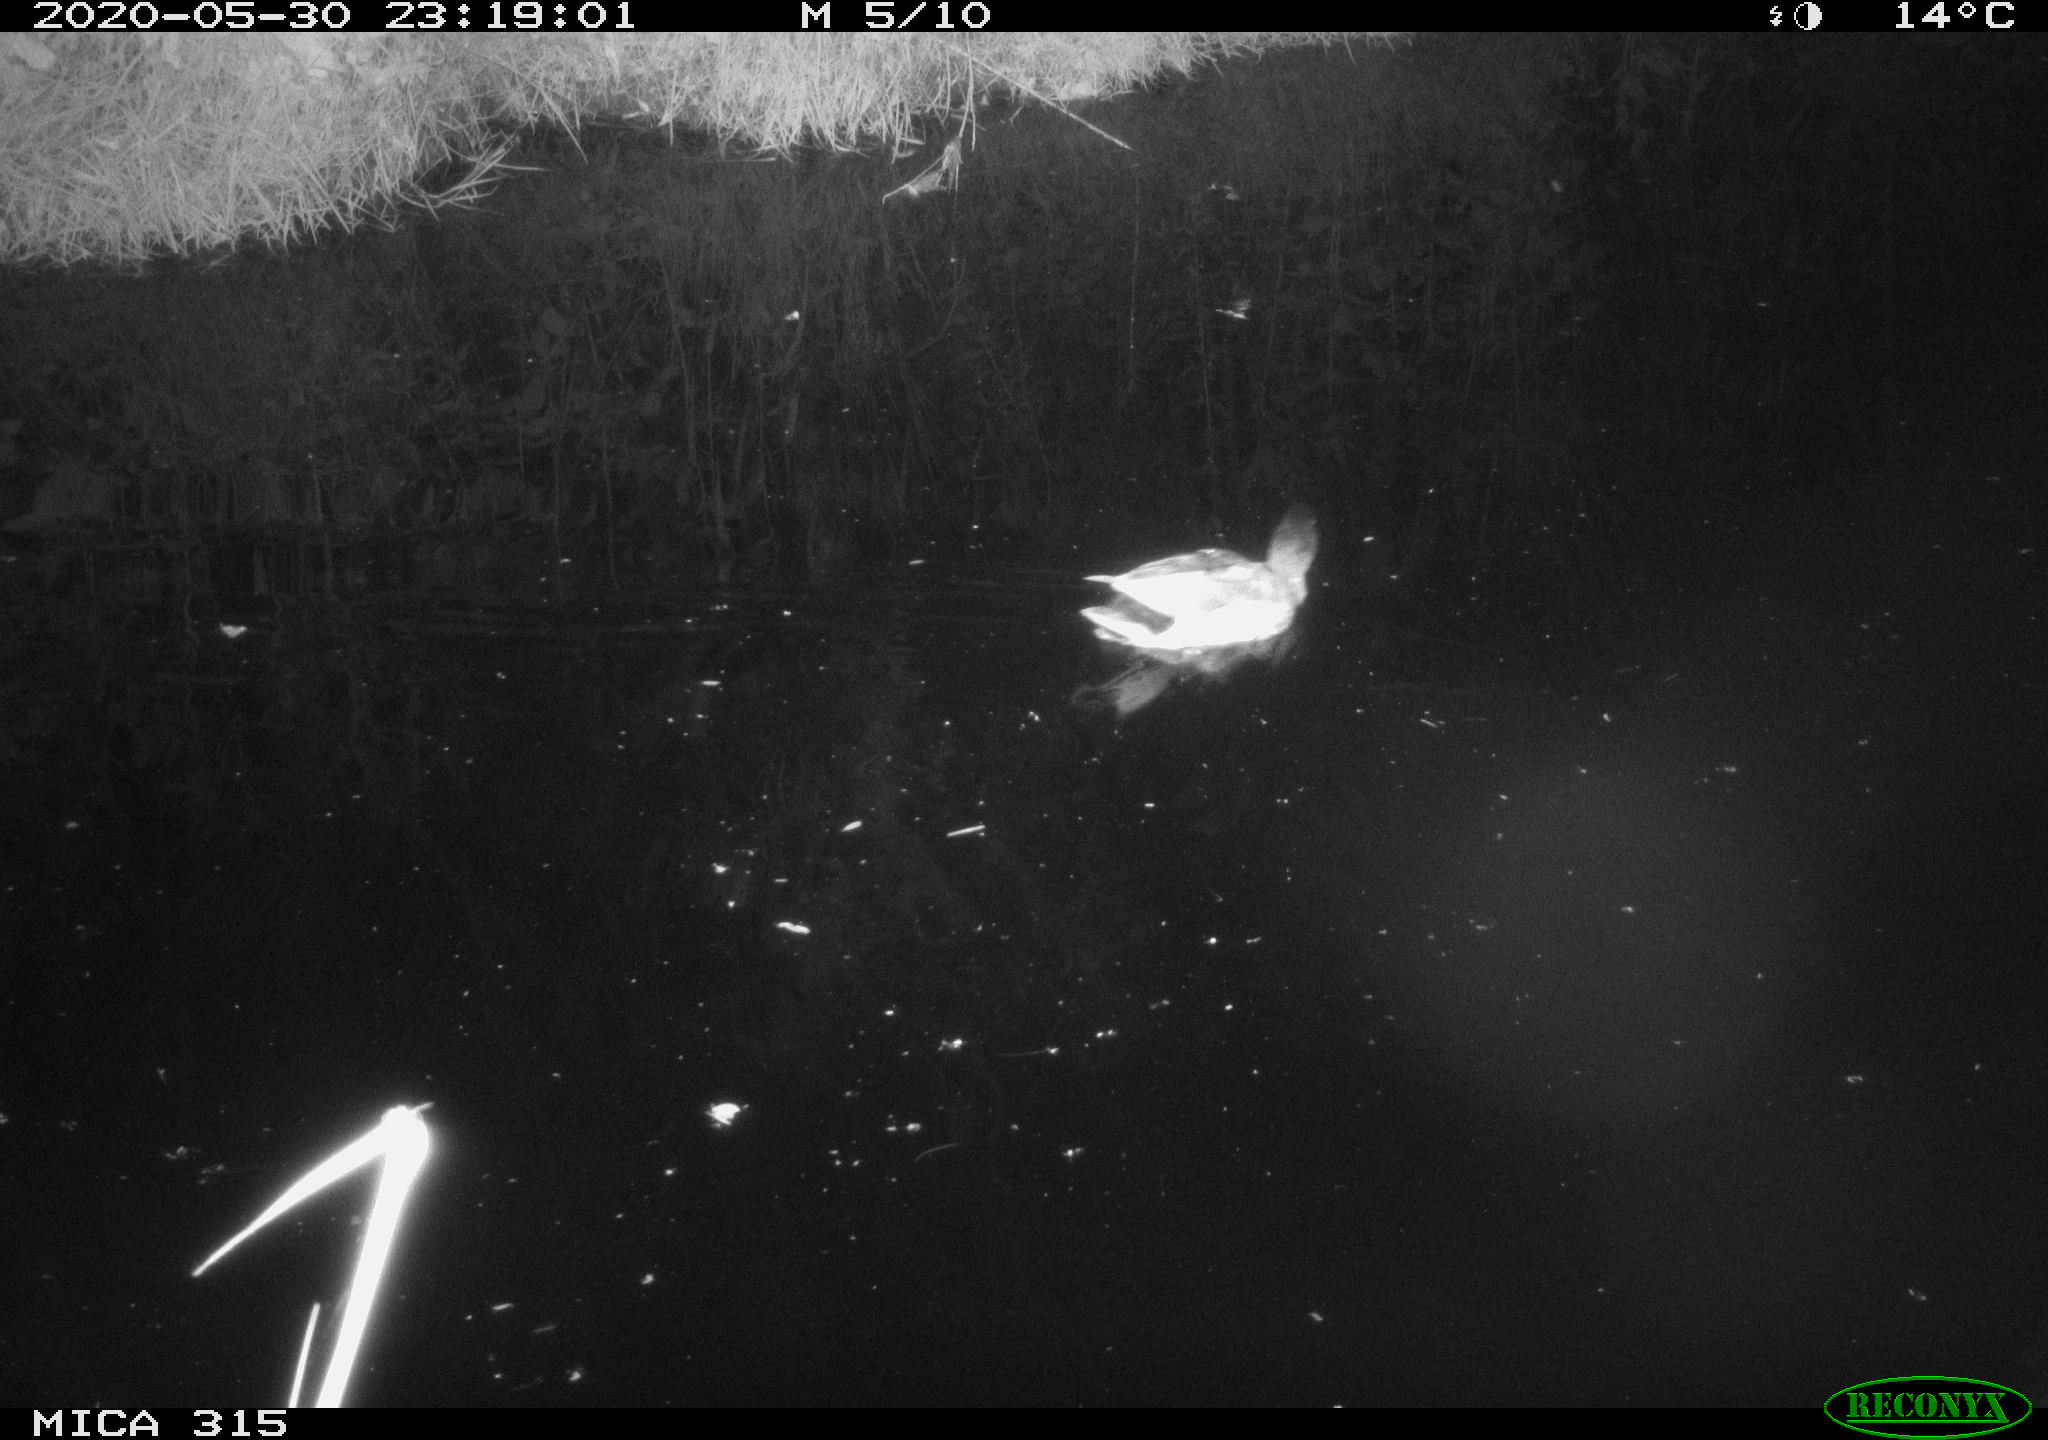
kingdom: Animalia
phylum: Chordata
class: Aves
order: Anseriformes
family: Anatidae
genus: Anas
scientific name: Anas platyrhynchos
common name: Mallard
